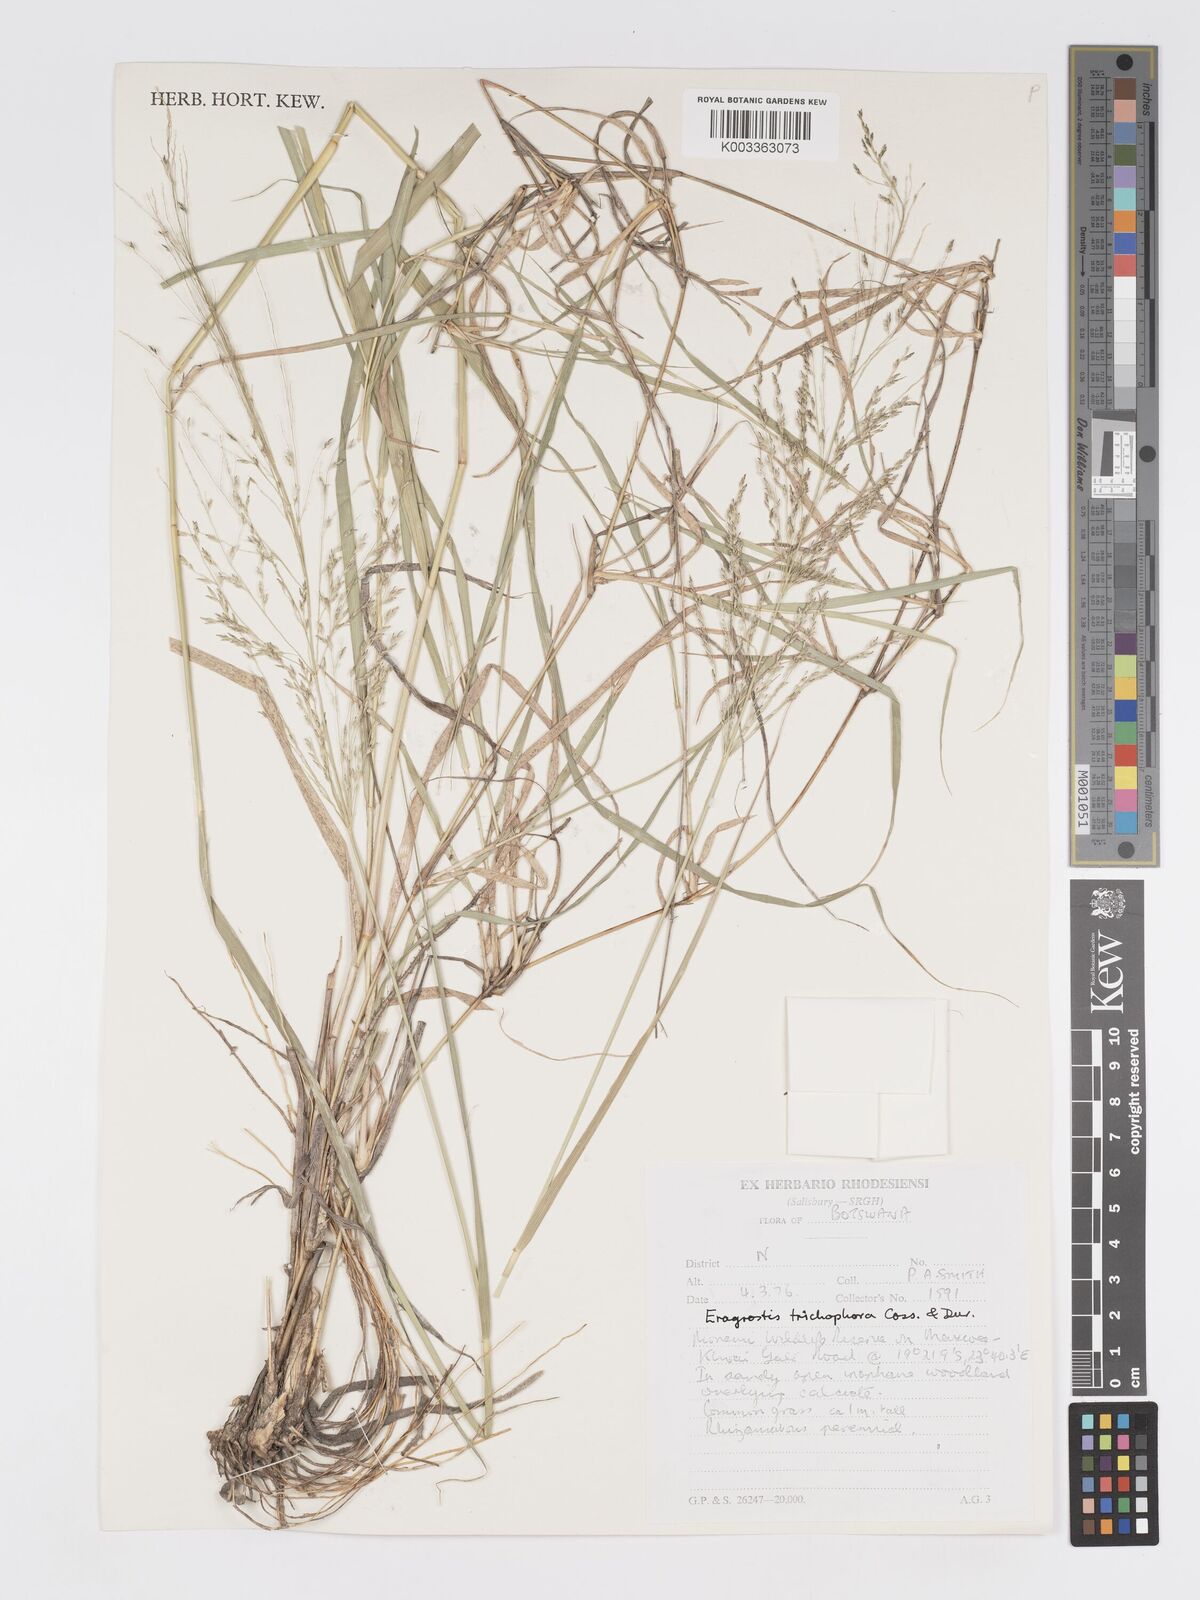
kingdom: Plantae
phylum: Tracheophyta
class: Liliopsida
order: Poales
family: Poaceae
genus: Eragrostis
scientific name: Eragrostis cylindriflora
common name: Cylinderflower lovegrass
